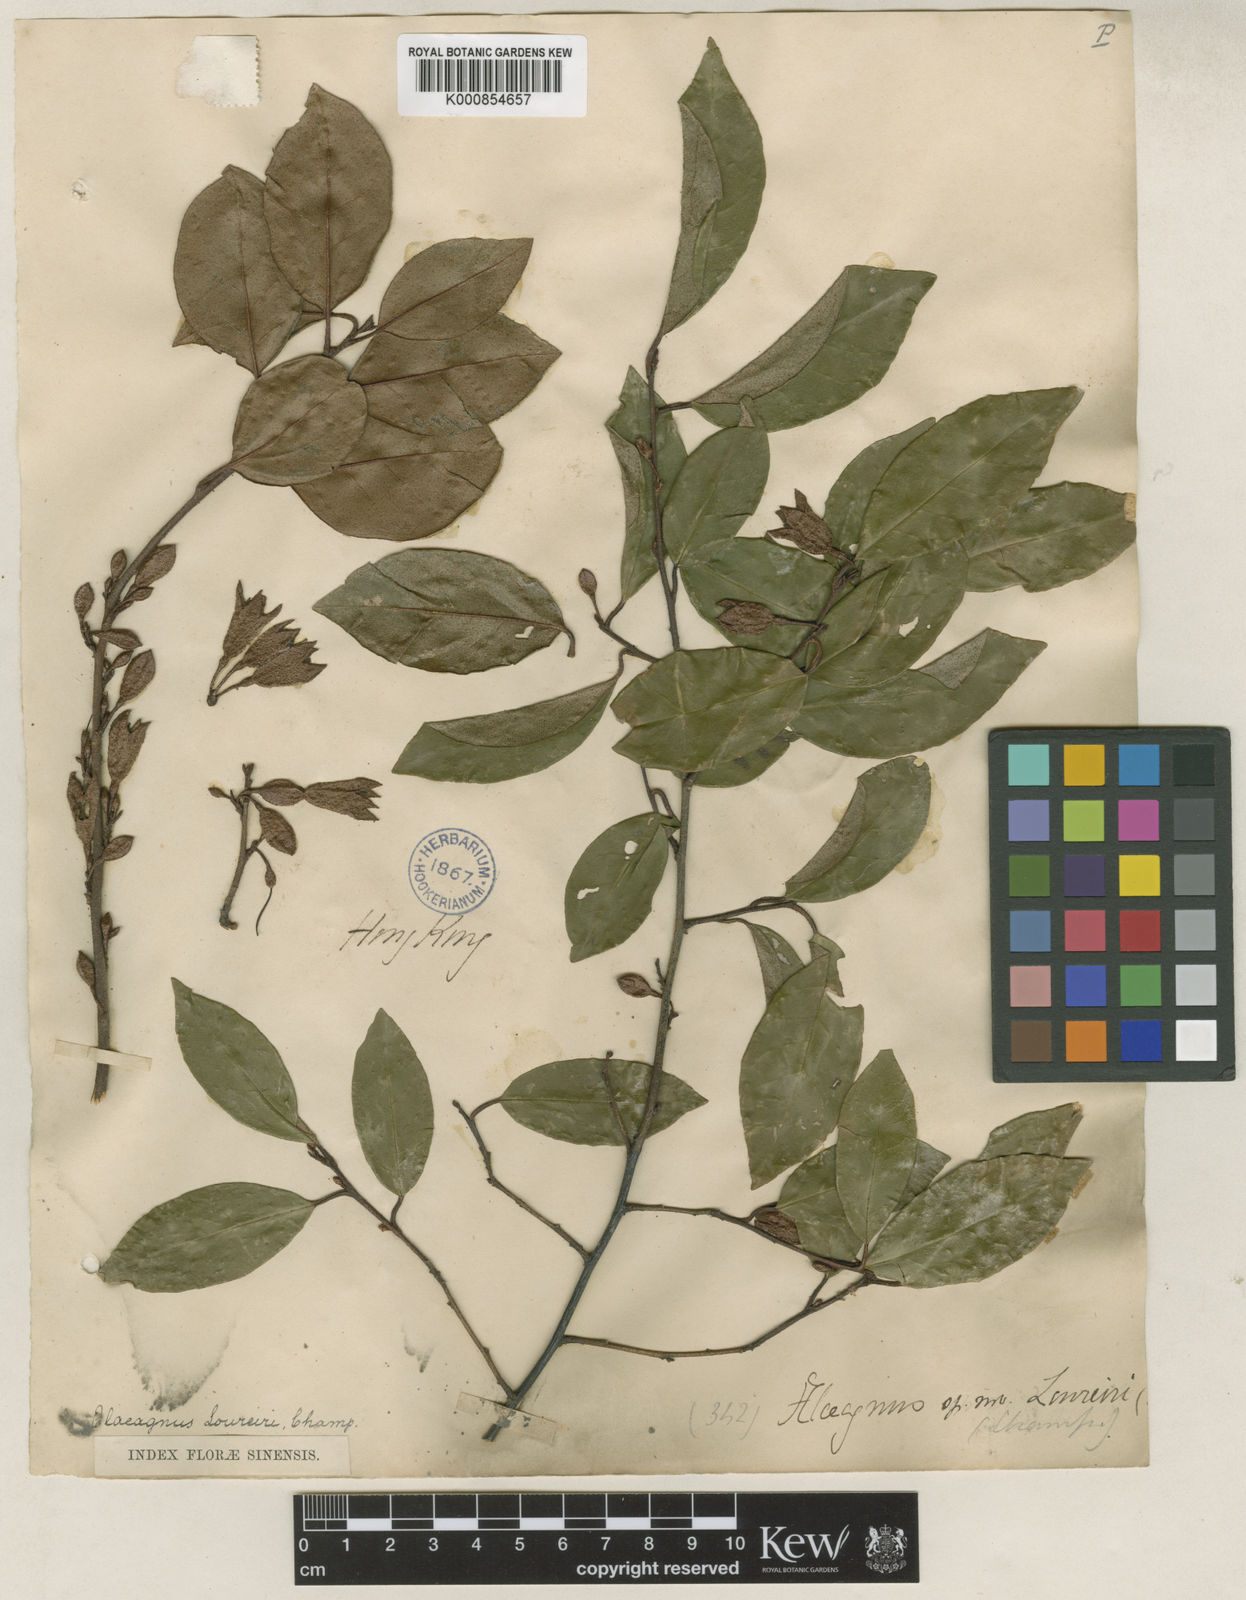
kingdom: Plantae
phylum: Tracheophyta
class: Magnoliopsida
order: Rosales
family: Elaeagnaceae
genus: Elaeagnus
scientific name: Elaeagnus loureiroi
